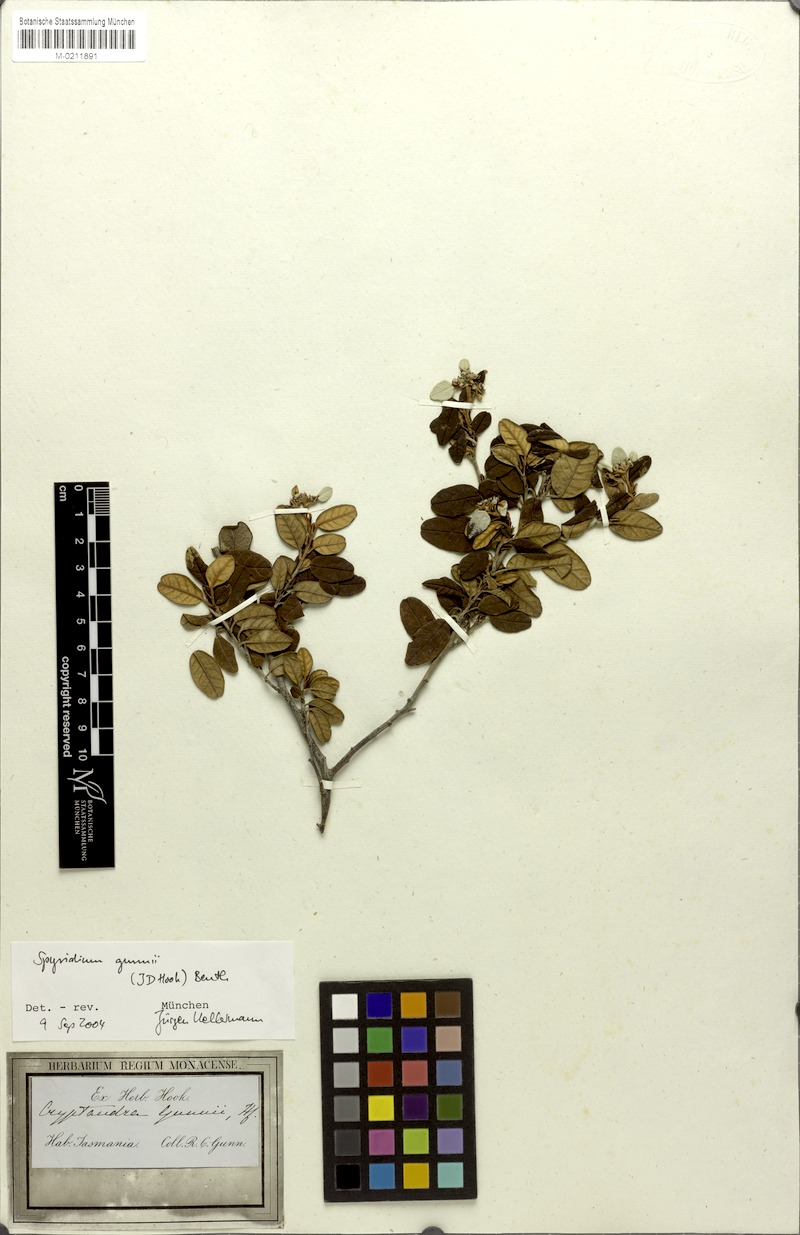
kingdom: Plantae
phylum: Tracheophyta
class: Magnoliopsida
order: Rosales
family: Rhamnaceae
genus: Spyridium
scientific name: Spyridium gunnii
